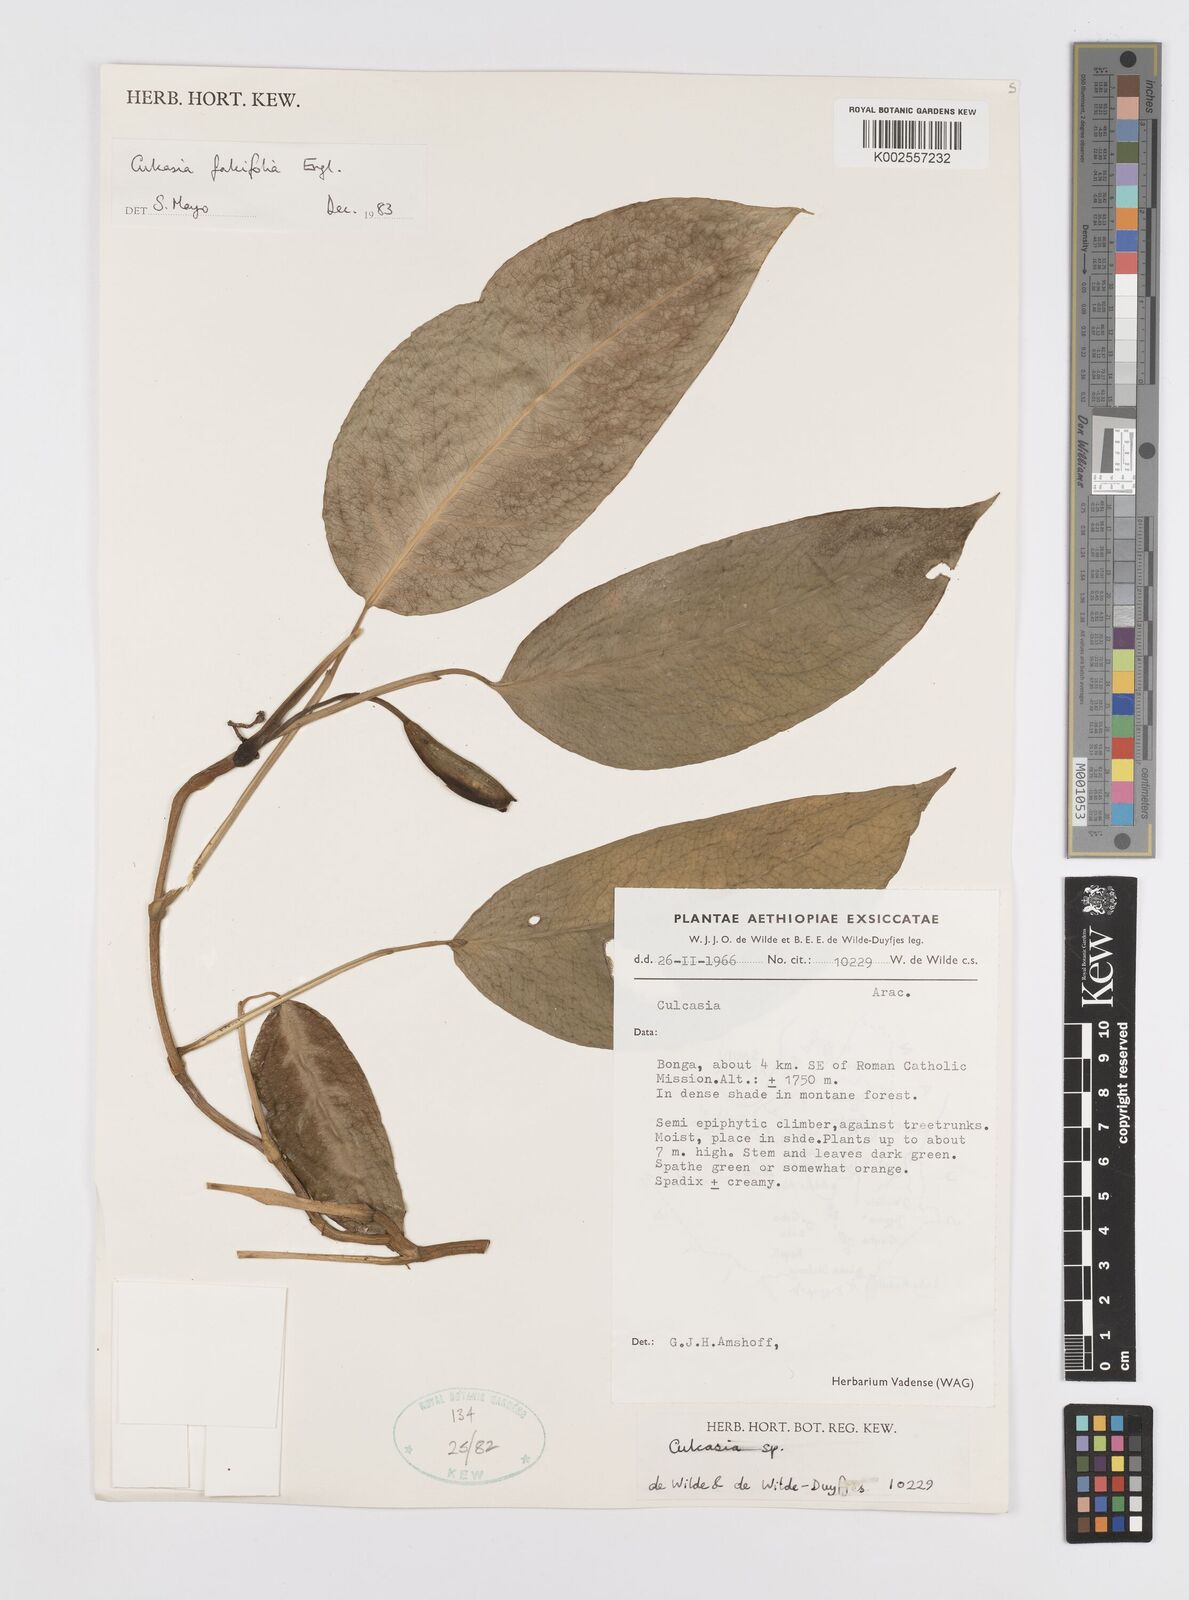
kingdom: Plantae
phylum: Tracheophyta
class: Liliopsida
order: Alismatales
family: Araceae
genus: Culcasia
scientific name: Culcasia falcifolia
